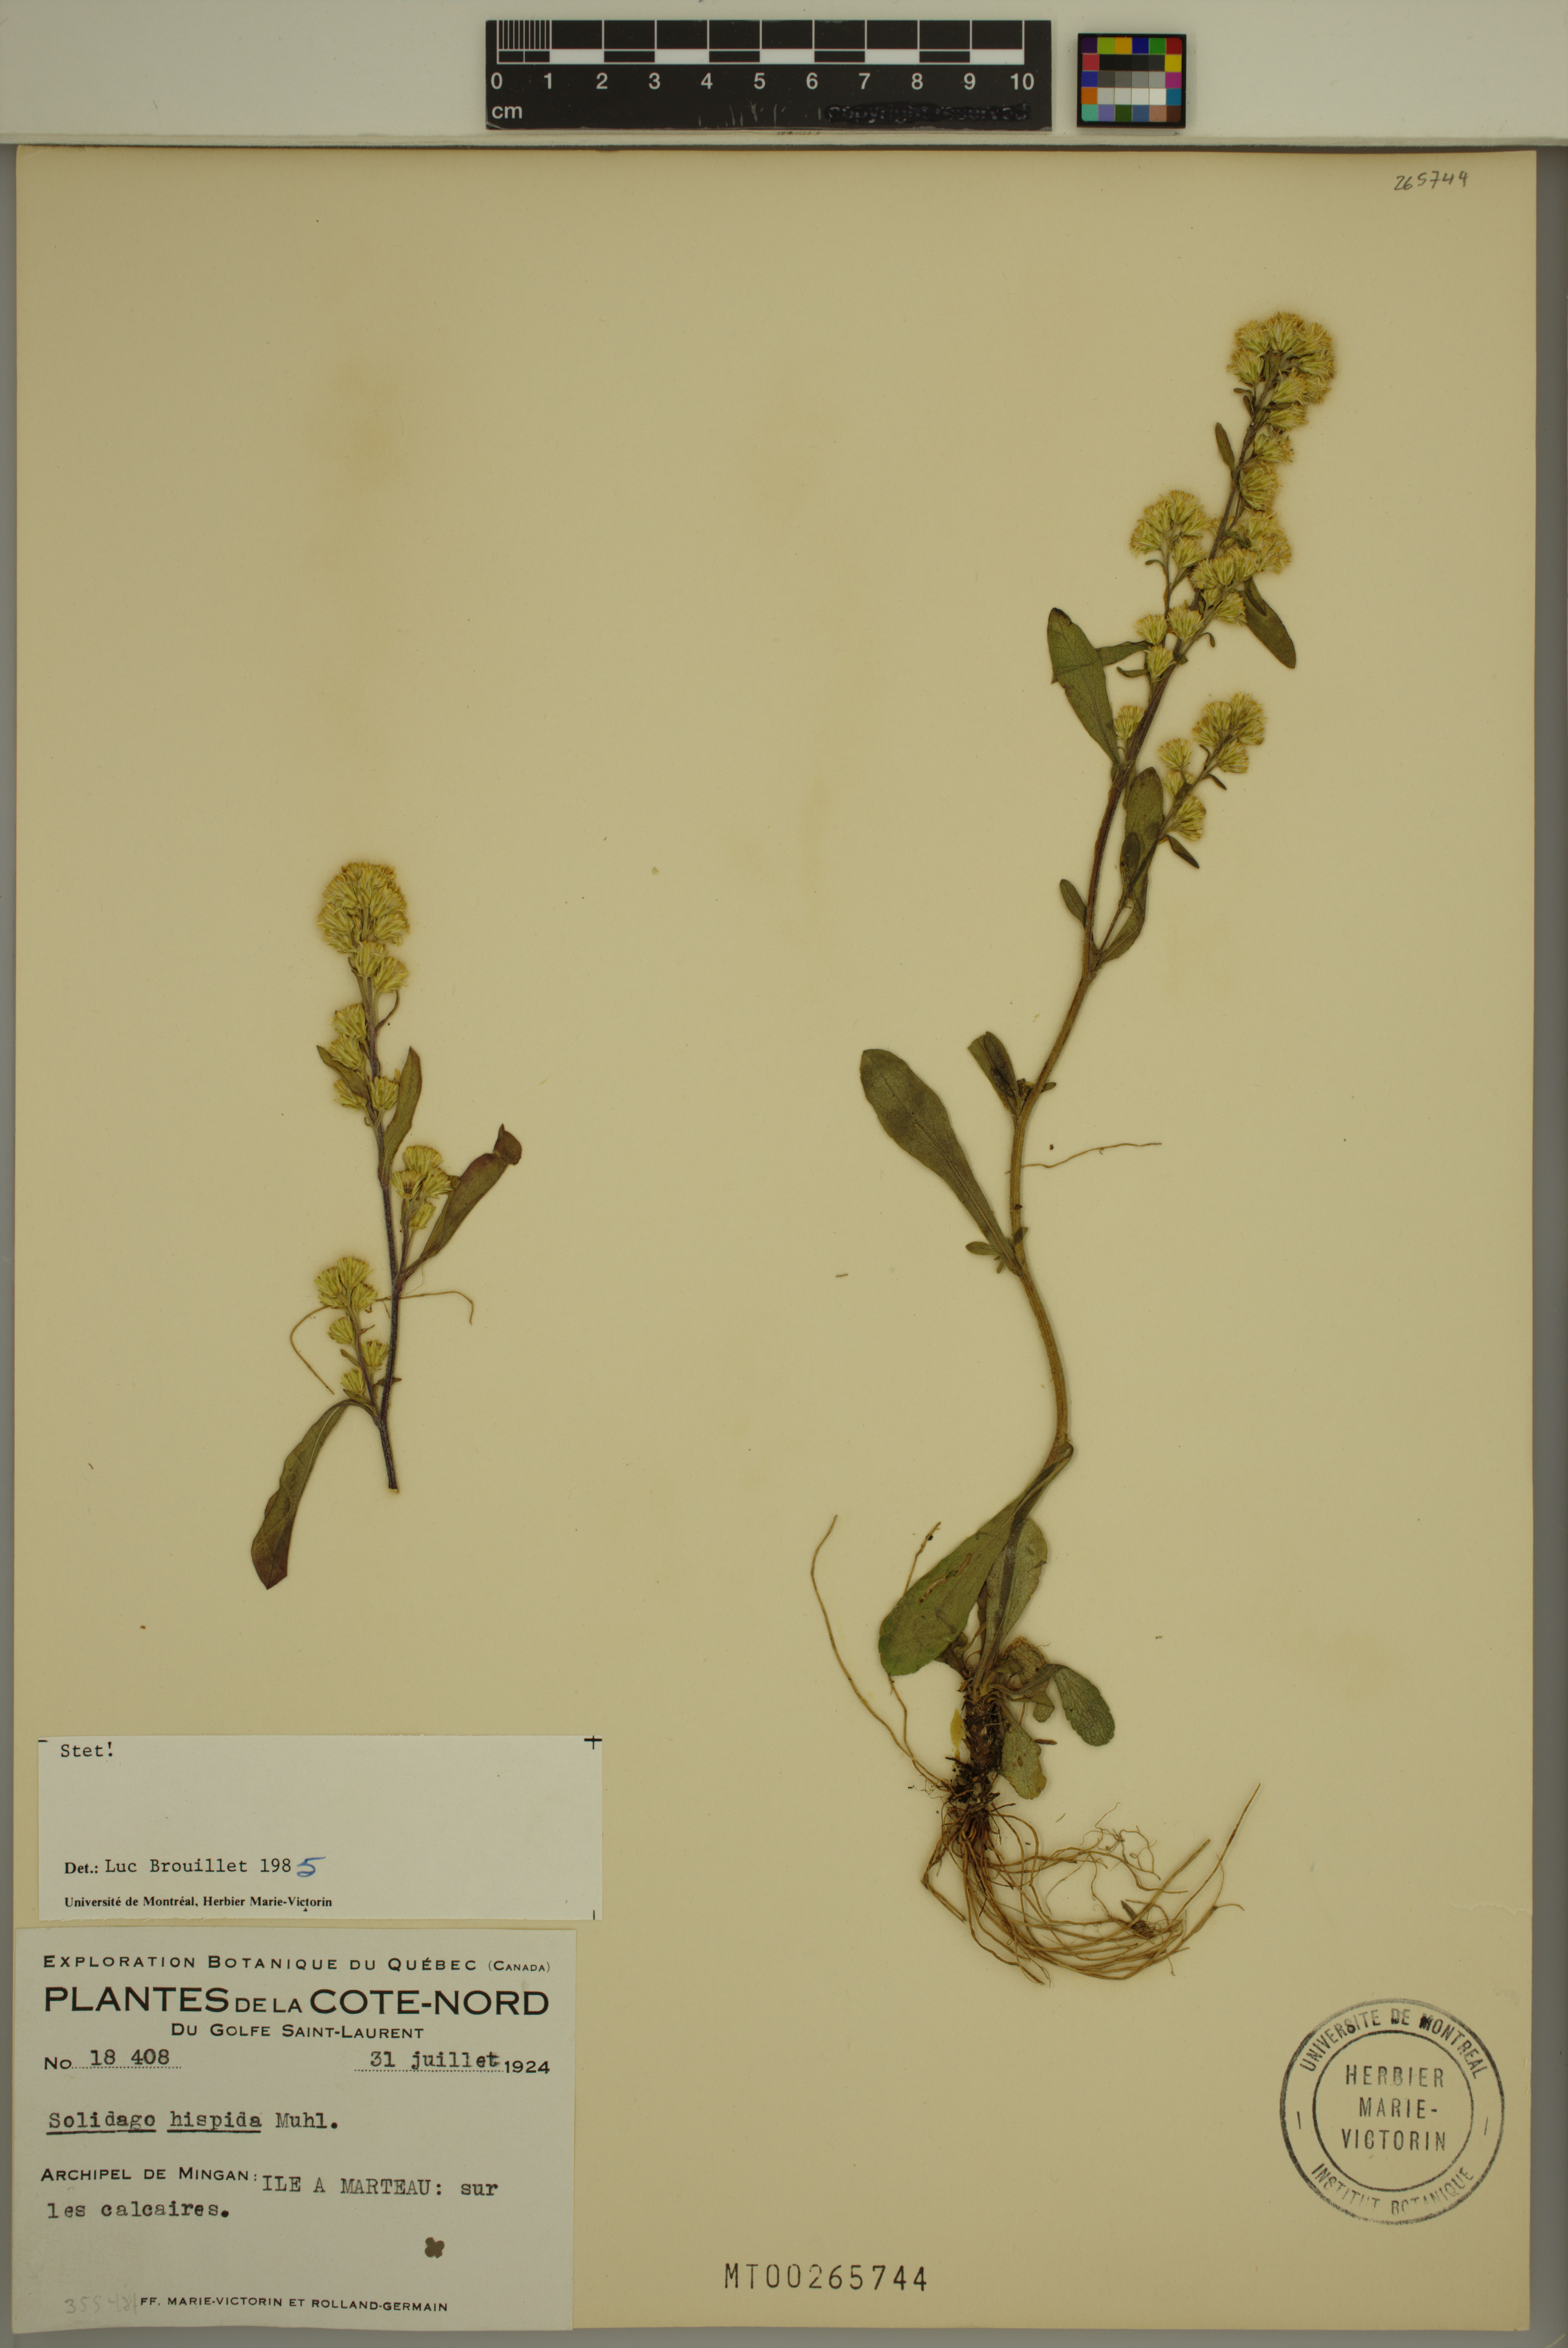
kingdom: Plantae
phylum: Tracheophyta
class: Magnoliopsida
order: Asterales
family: Asteraceae
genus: Solidago
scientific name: Solidago hispida
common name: Hairy goldenrod
